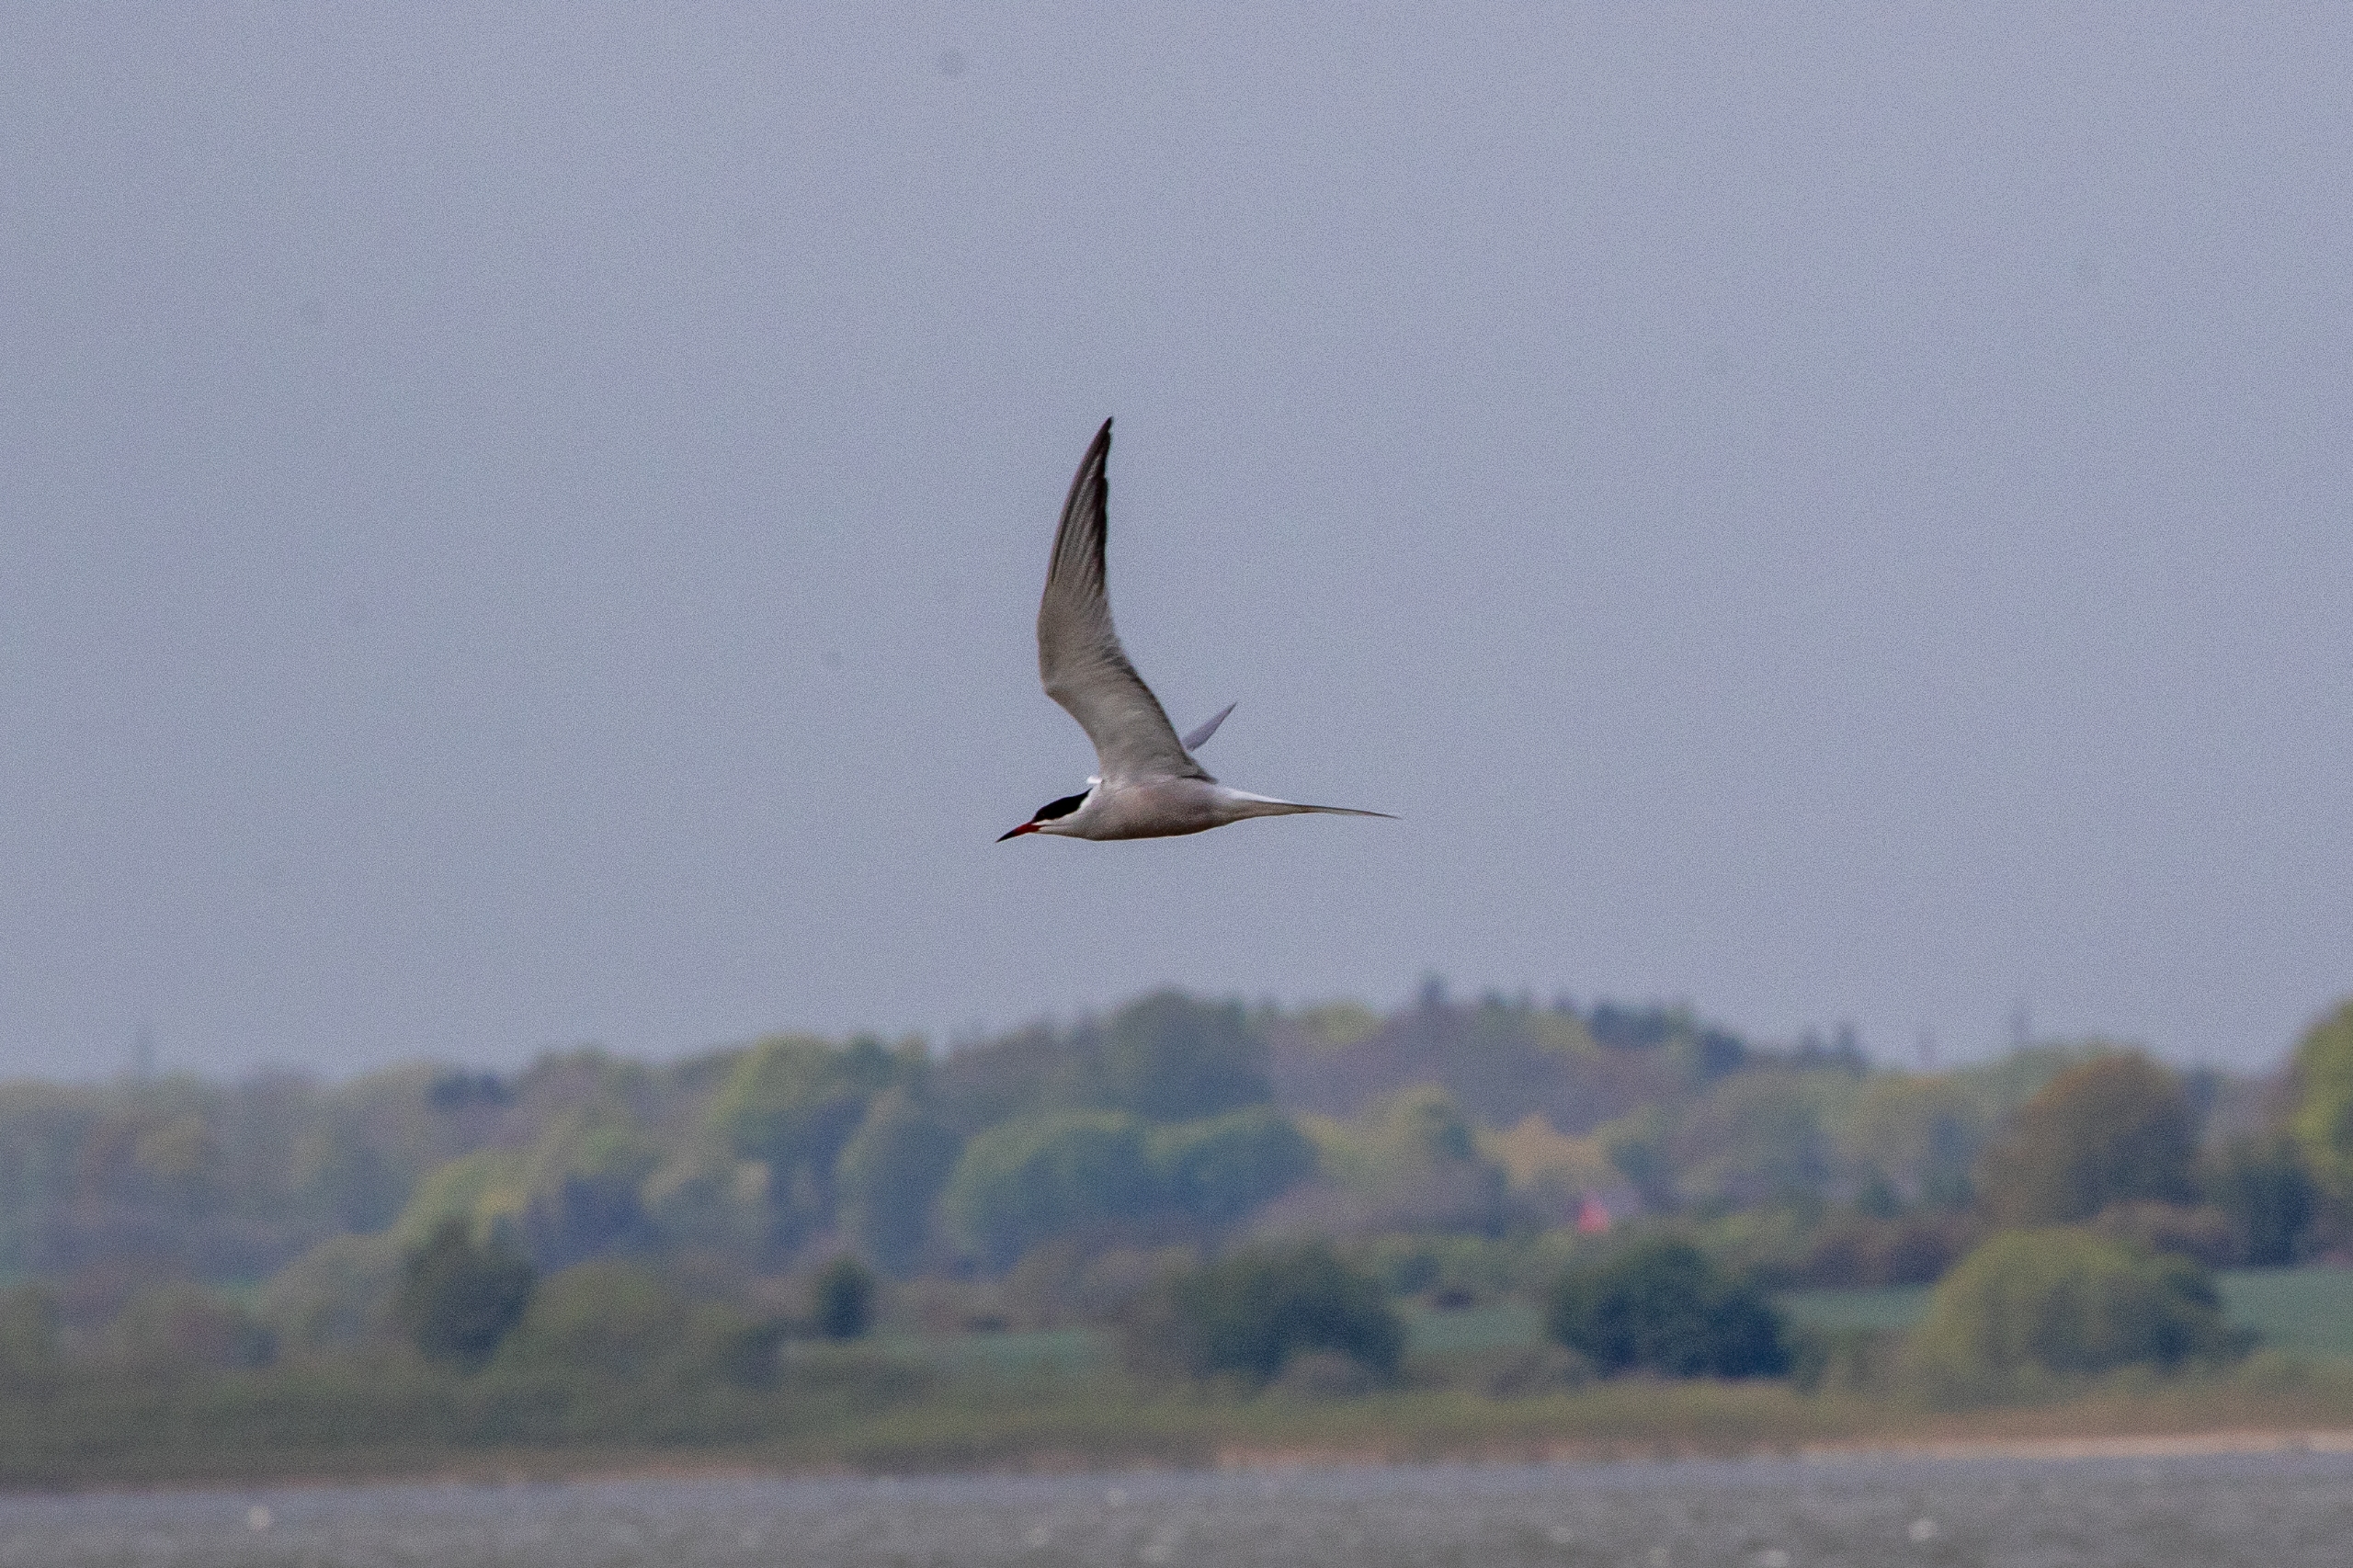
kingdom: Animalia
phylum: Chordata
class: Aves
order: Charadriiformes
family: Laridae
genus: Sterna
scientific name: Sterna hirundo
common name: Fjordterne
